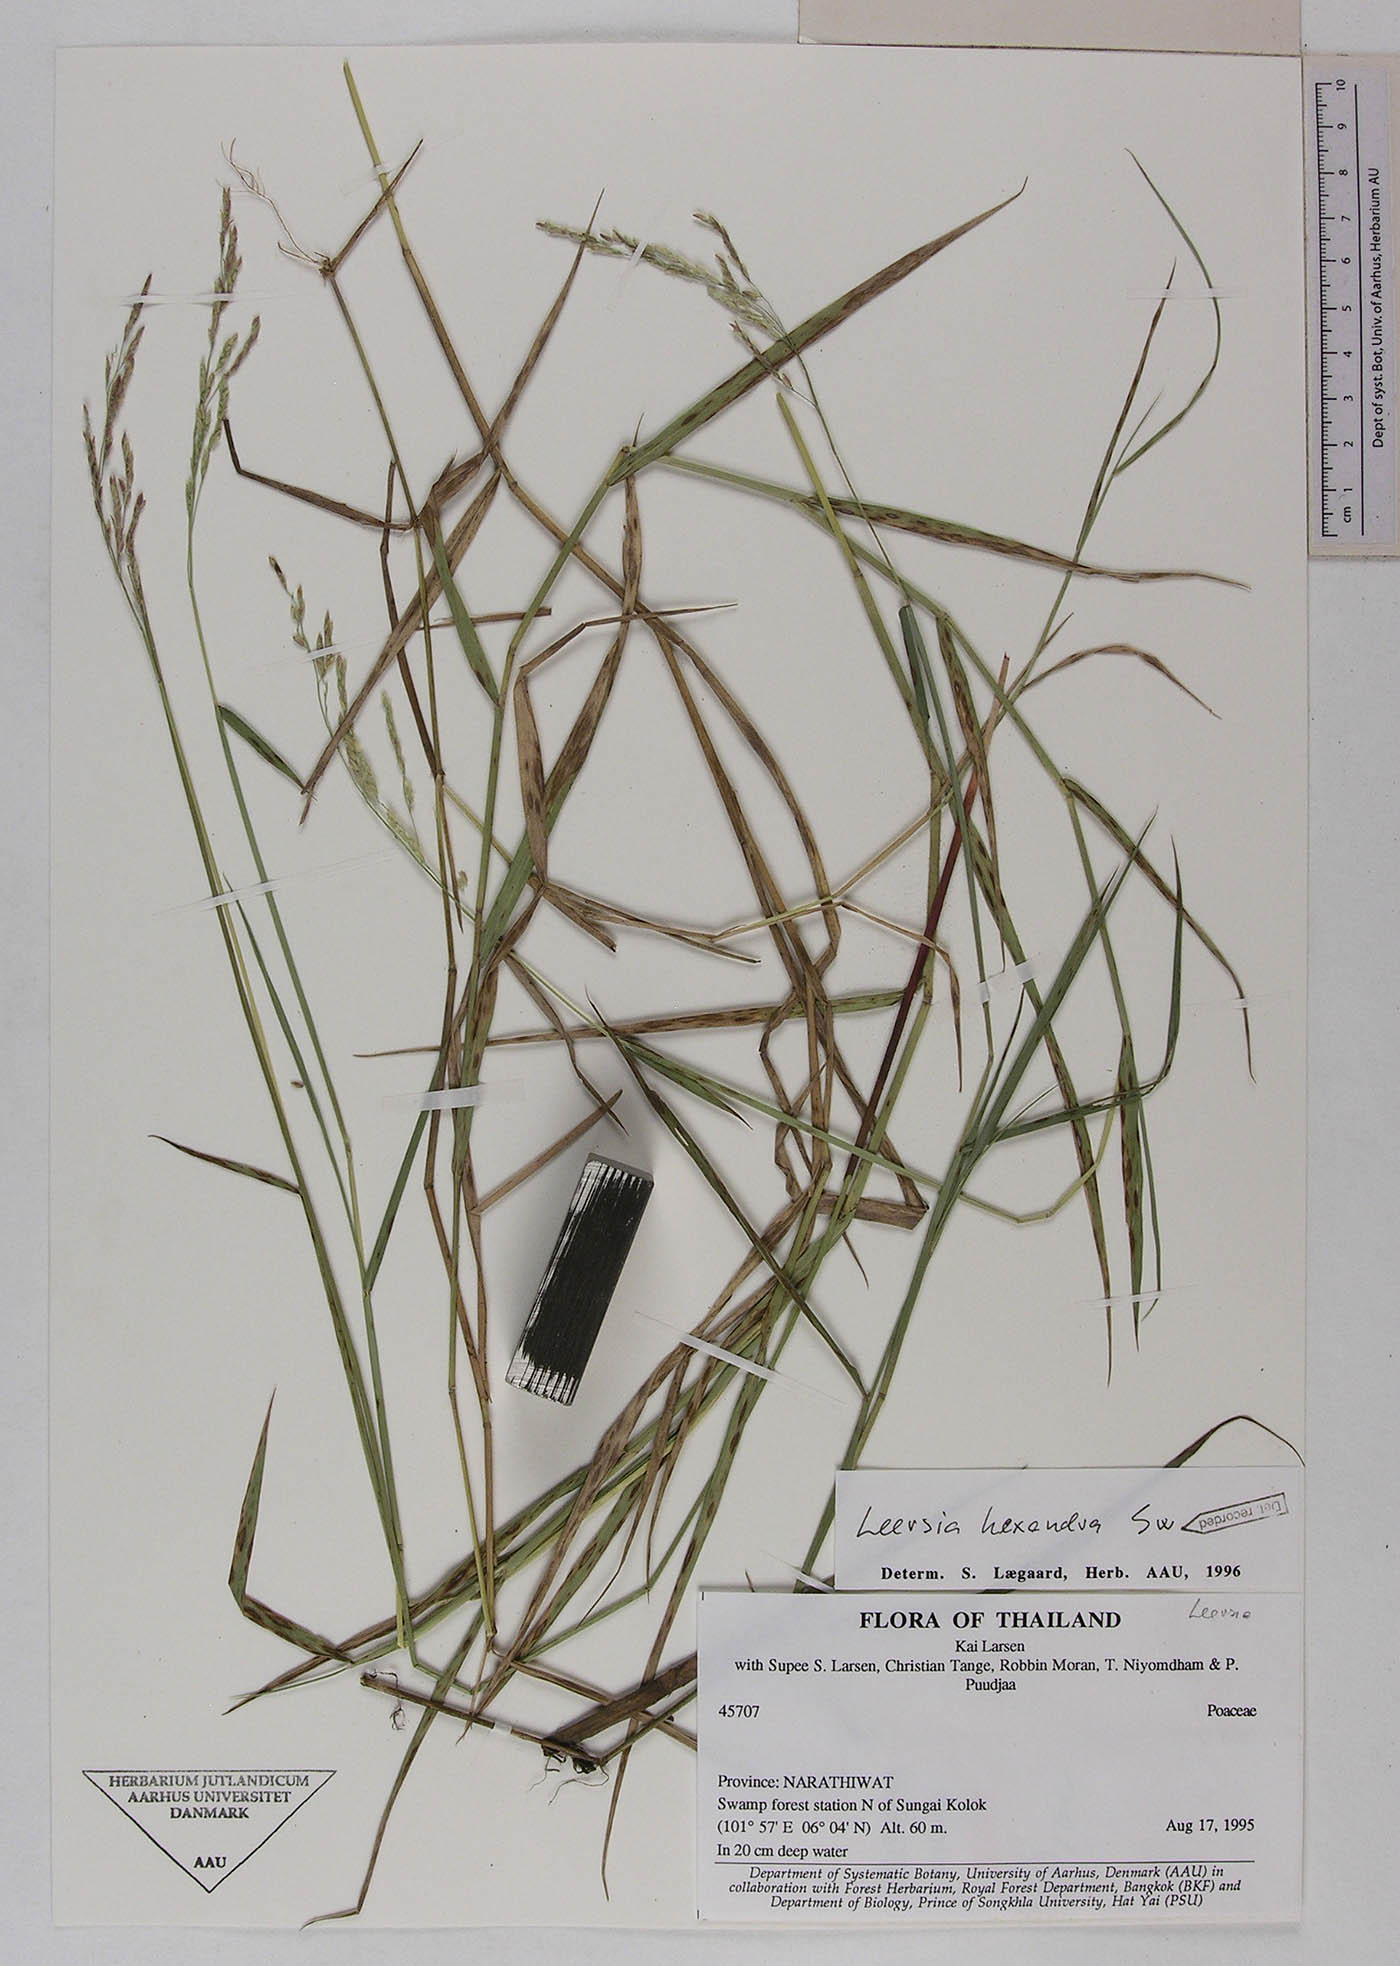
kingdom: Plantae
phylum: Tracheophyta
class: Liliopsida
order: Poales
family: Poaceae
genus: Leersia
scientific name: Leersia hexandra
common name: Southern cut grass
